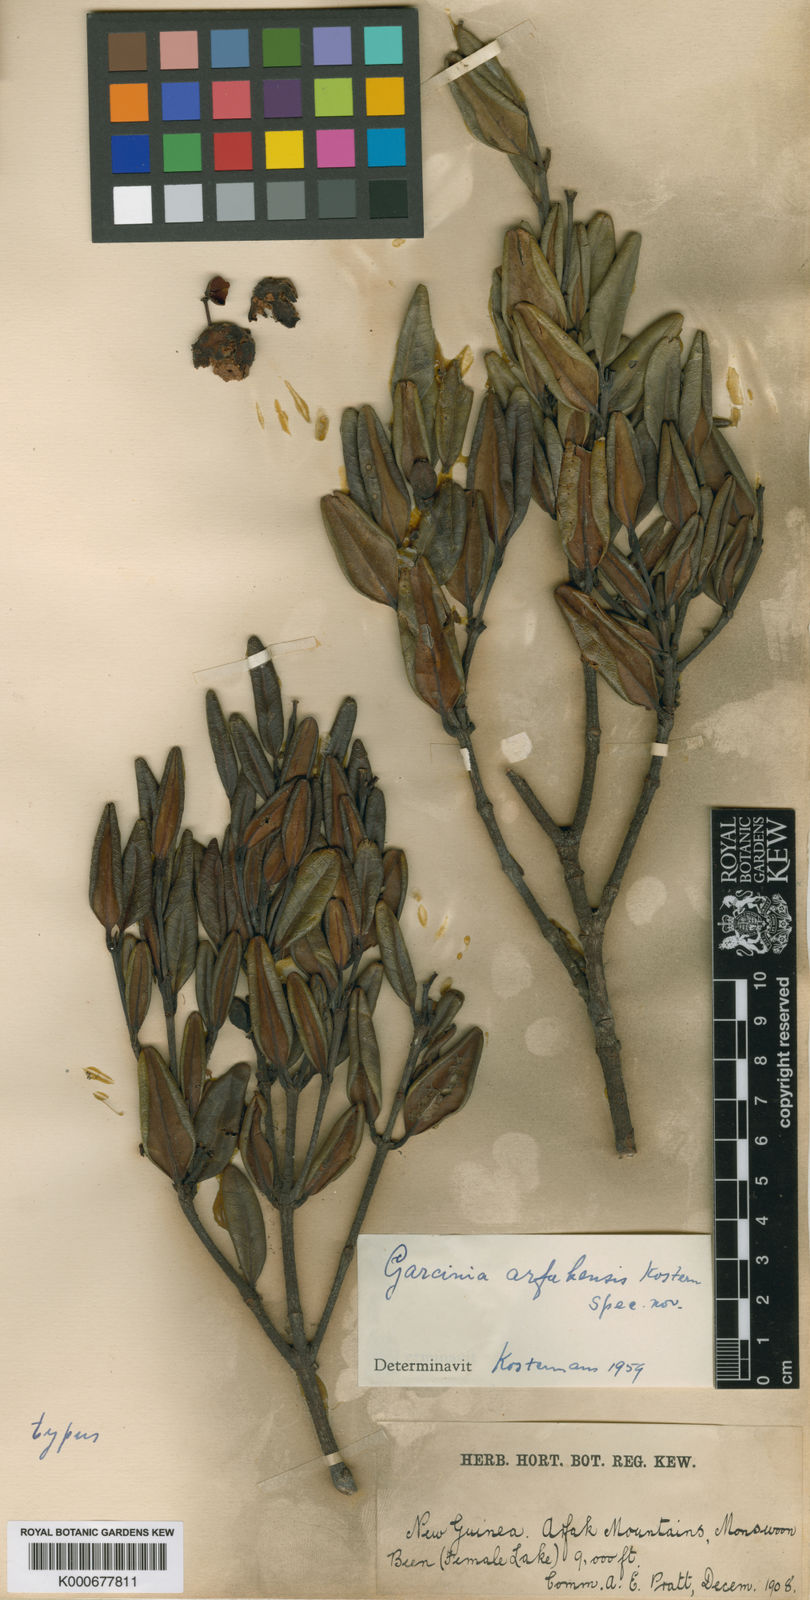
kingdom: Plantae
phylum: Tracheophyta
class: Magnoliopsida
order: Malpighiales
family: Clusiaceae
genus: Garcinia
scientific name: Garcinia
